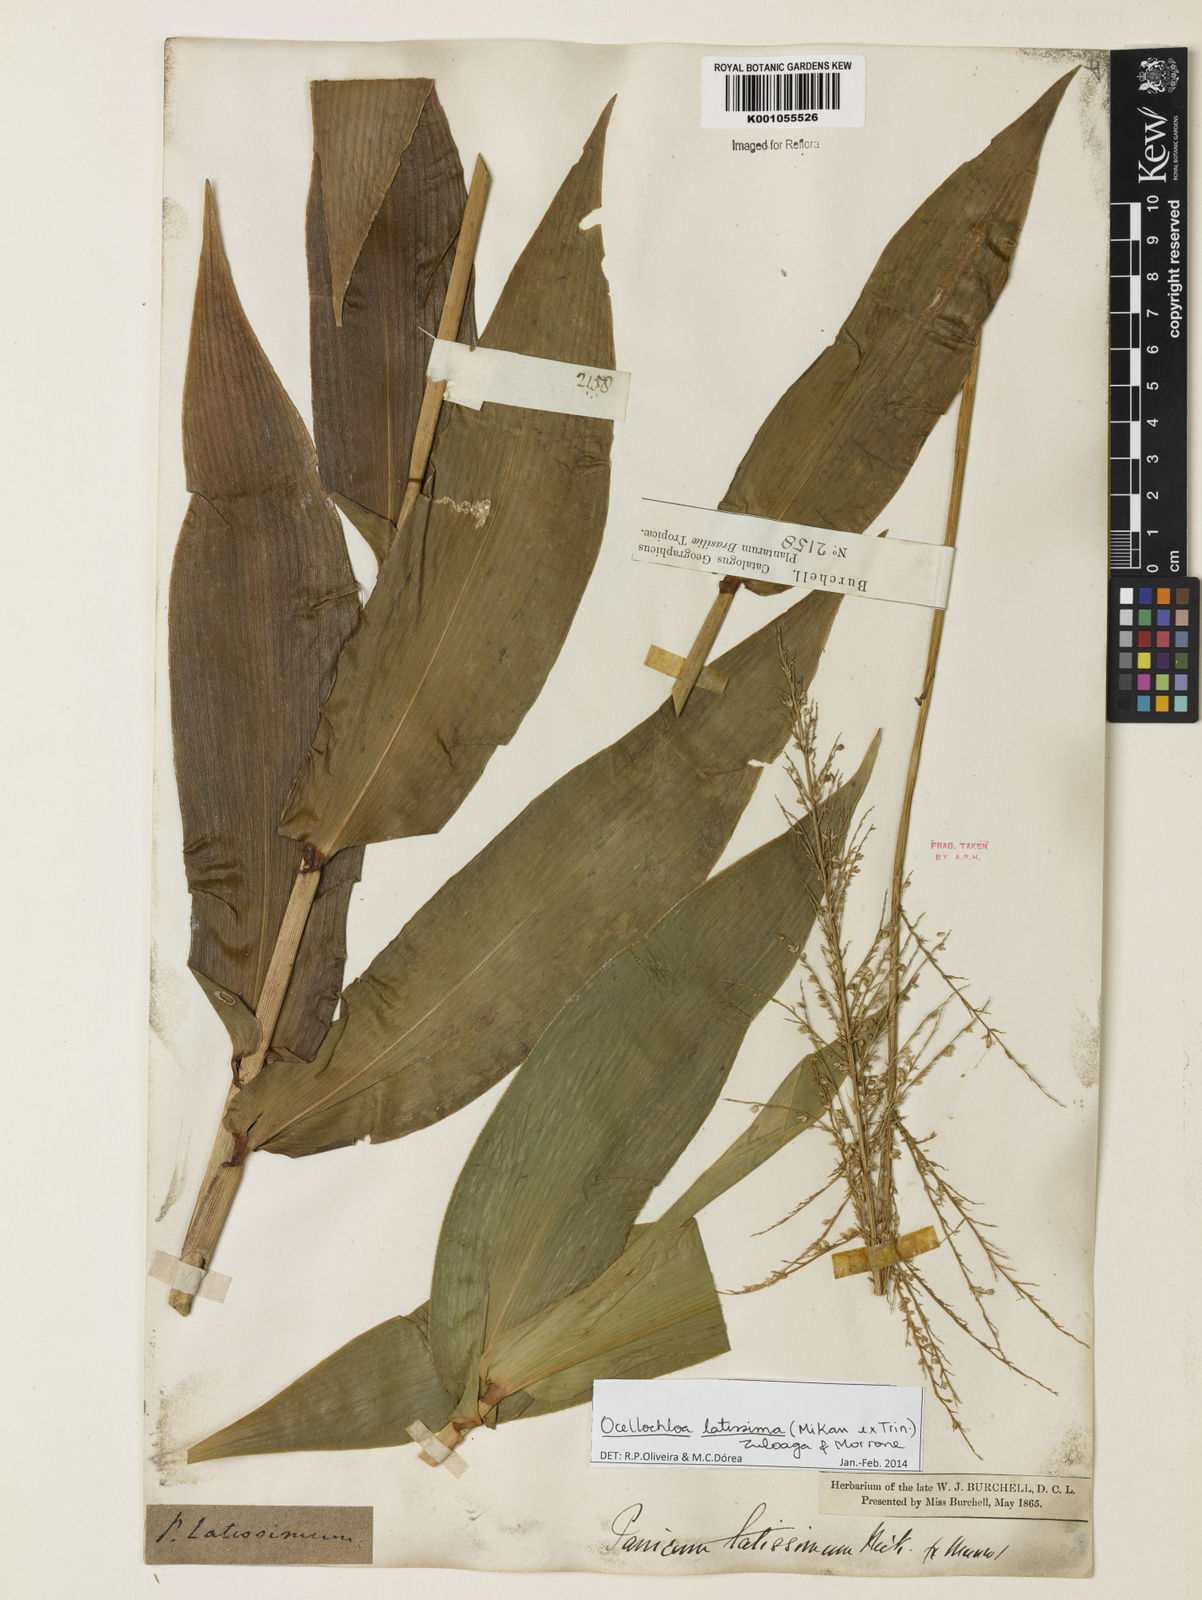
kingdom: Plantae
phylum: Tracheophyta
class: Liliopsida
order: Poales
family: Poaceae
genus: Ocellochloa
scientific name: Ocellochloa latissima
